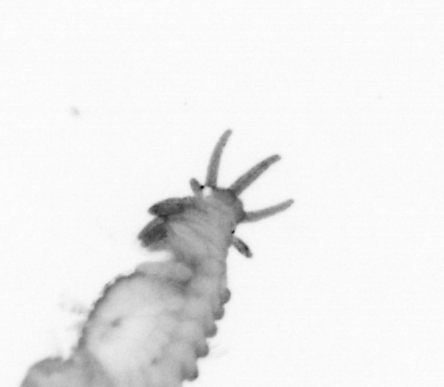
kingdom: Animalia
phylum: Annelida
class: Polychaeta
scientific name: Polychaeta
